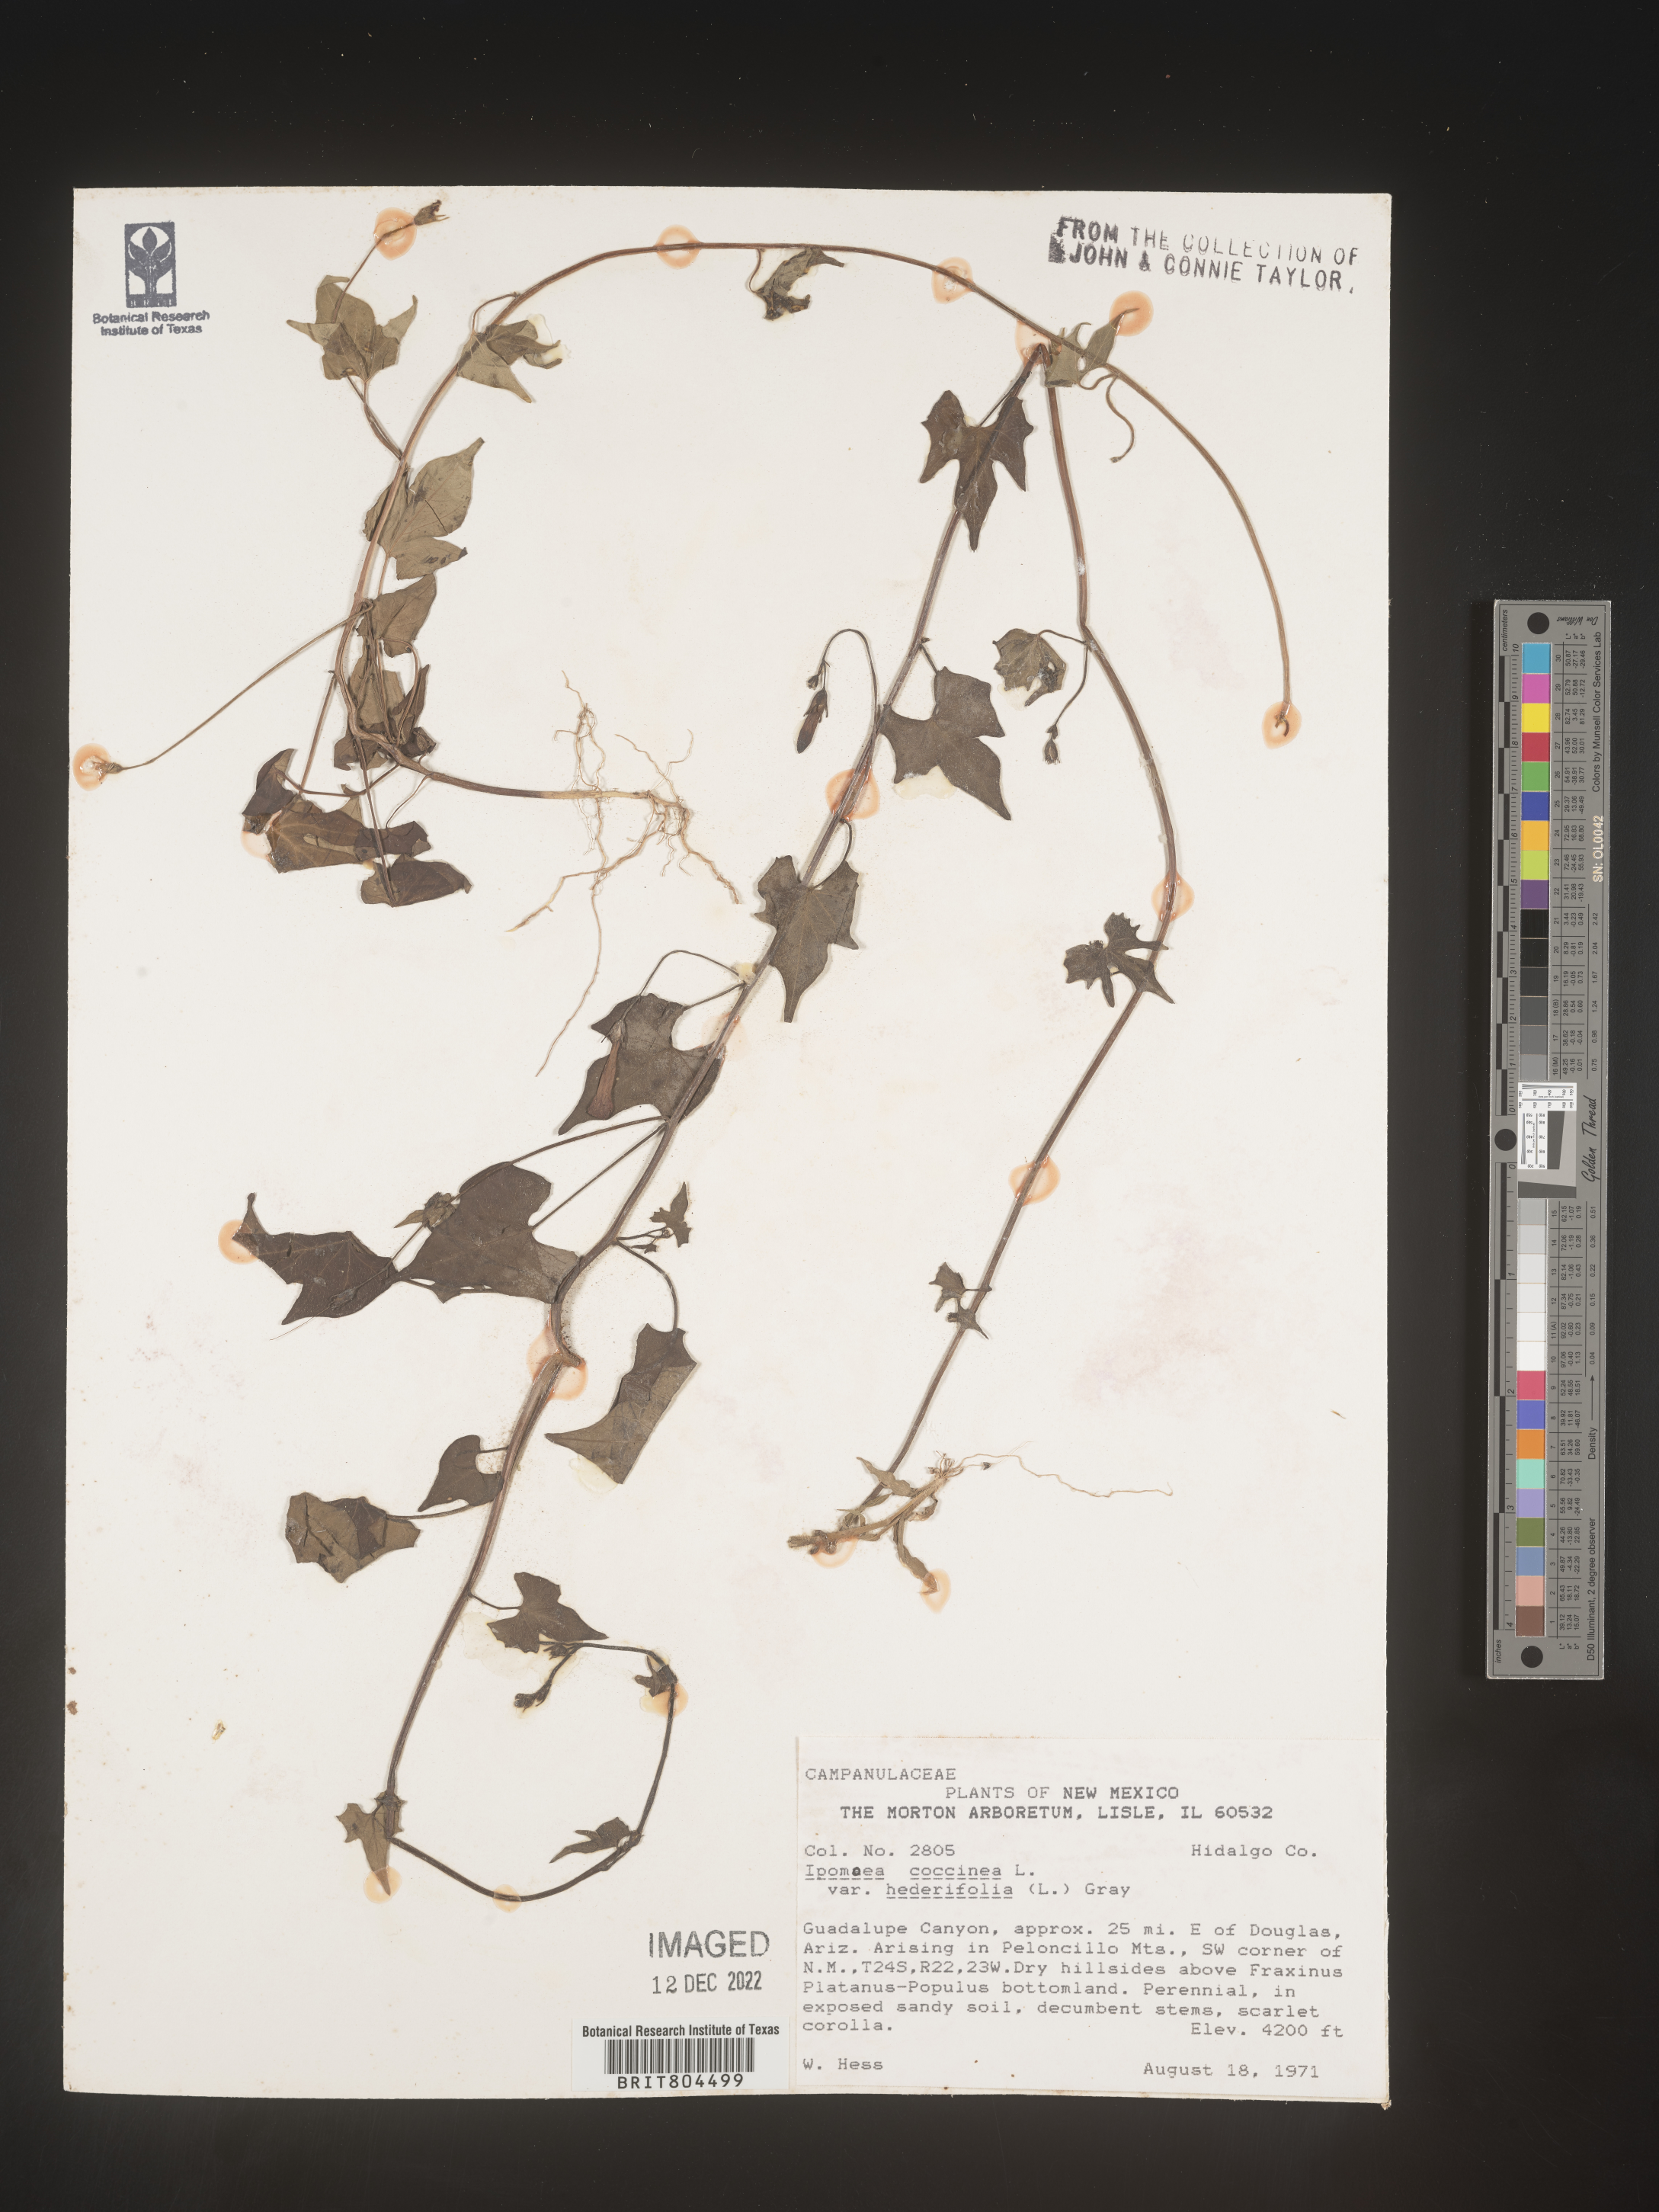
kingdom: Plantae
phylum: Tracheophyta
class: Magnoliopsida
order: Solanales
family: Convolvulaceae
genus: Ipomoea
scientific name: Ipomoea coccinea
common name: Red morning-glory
